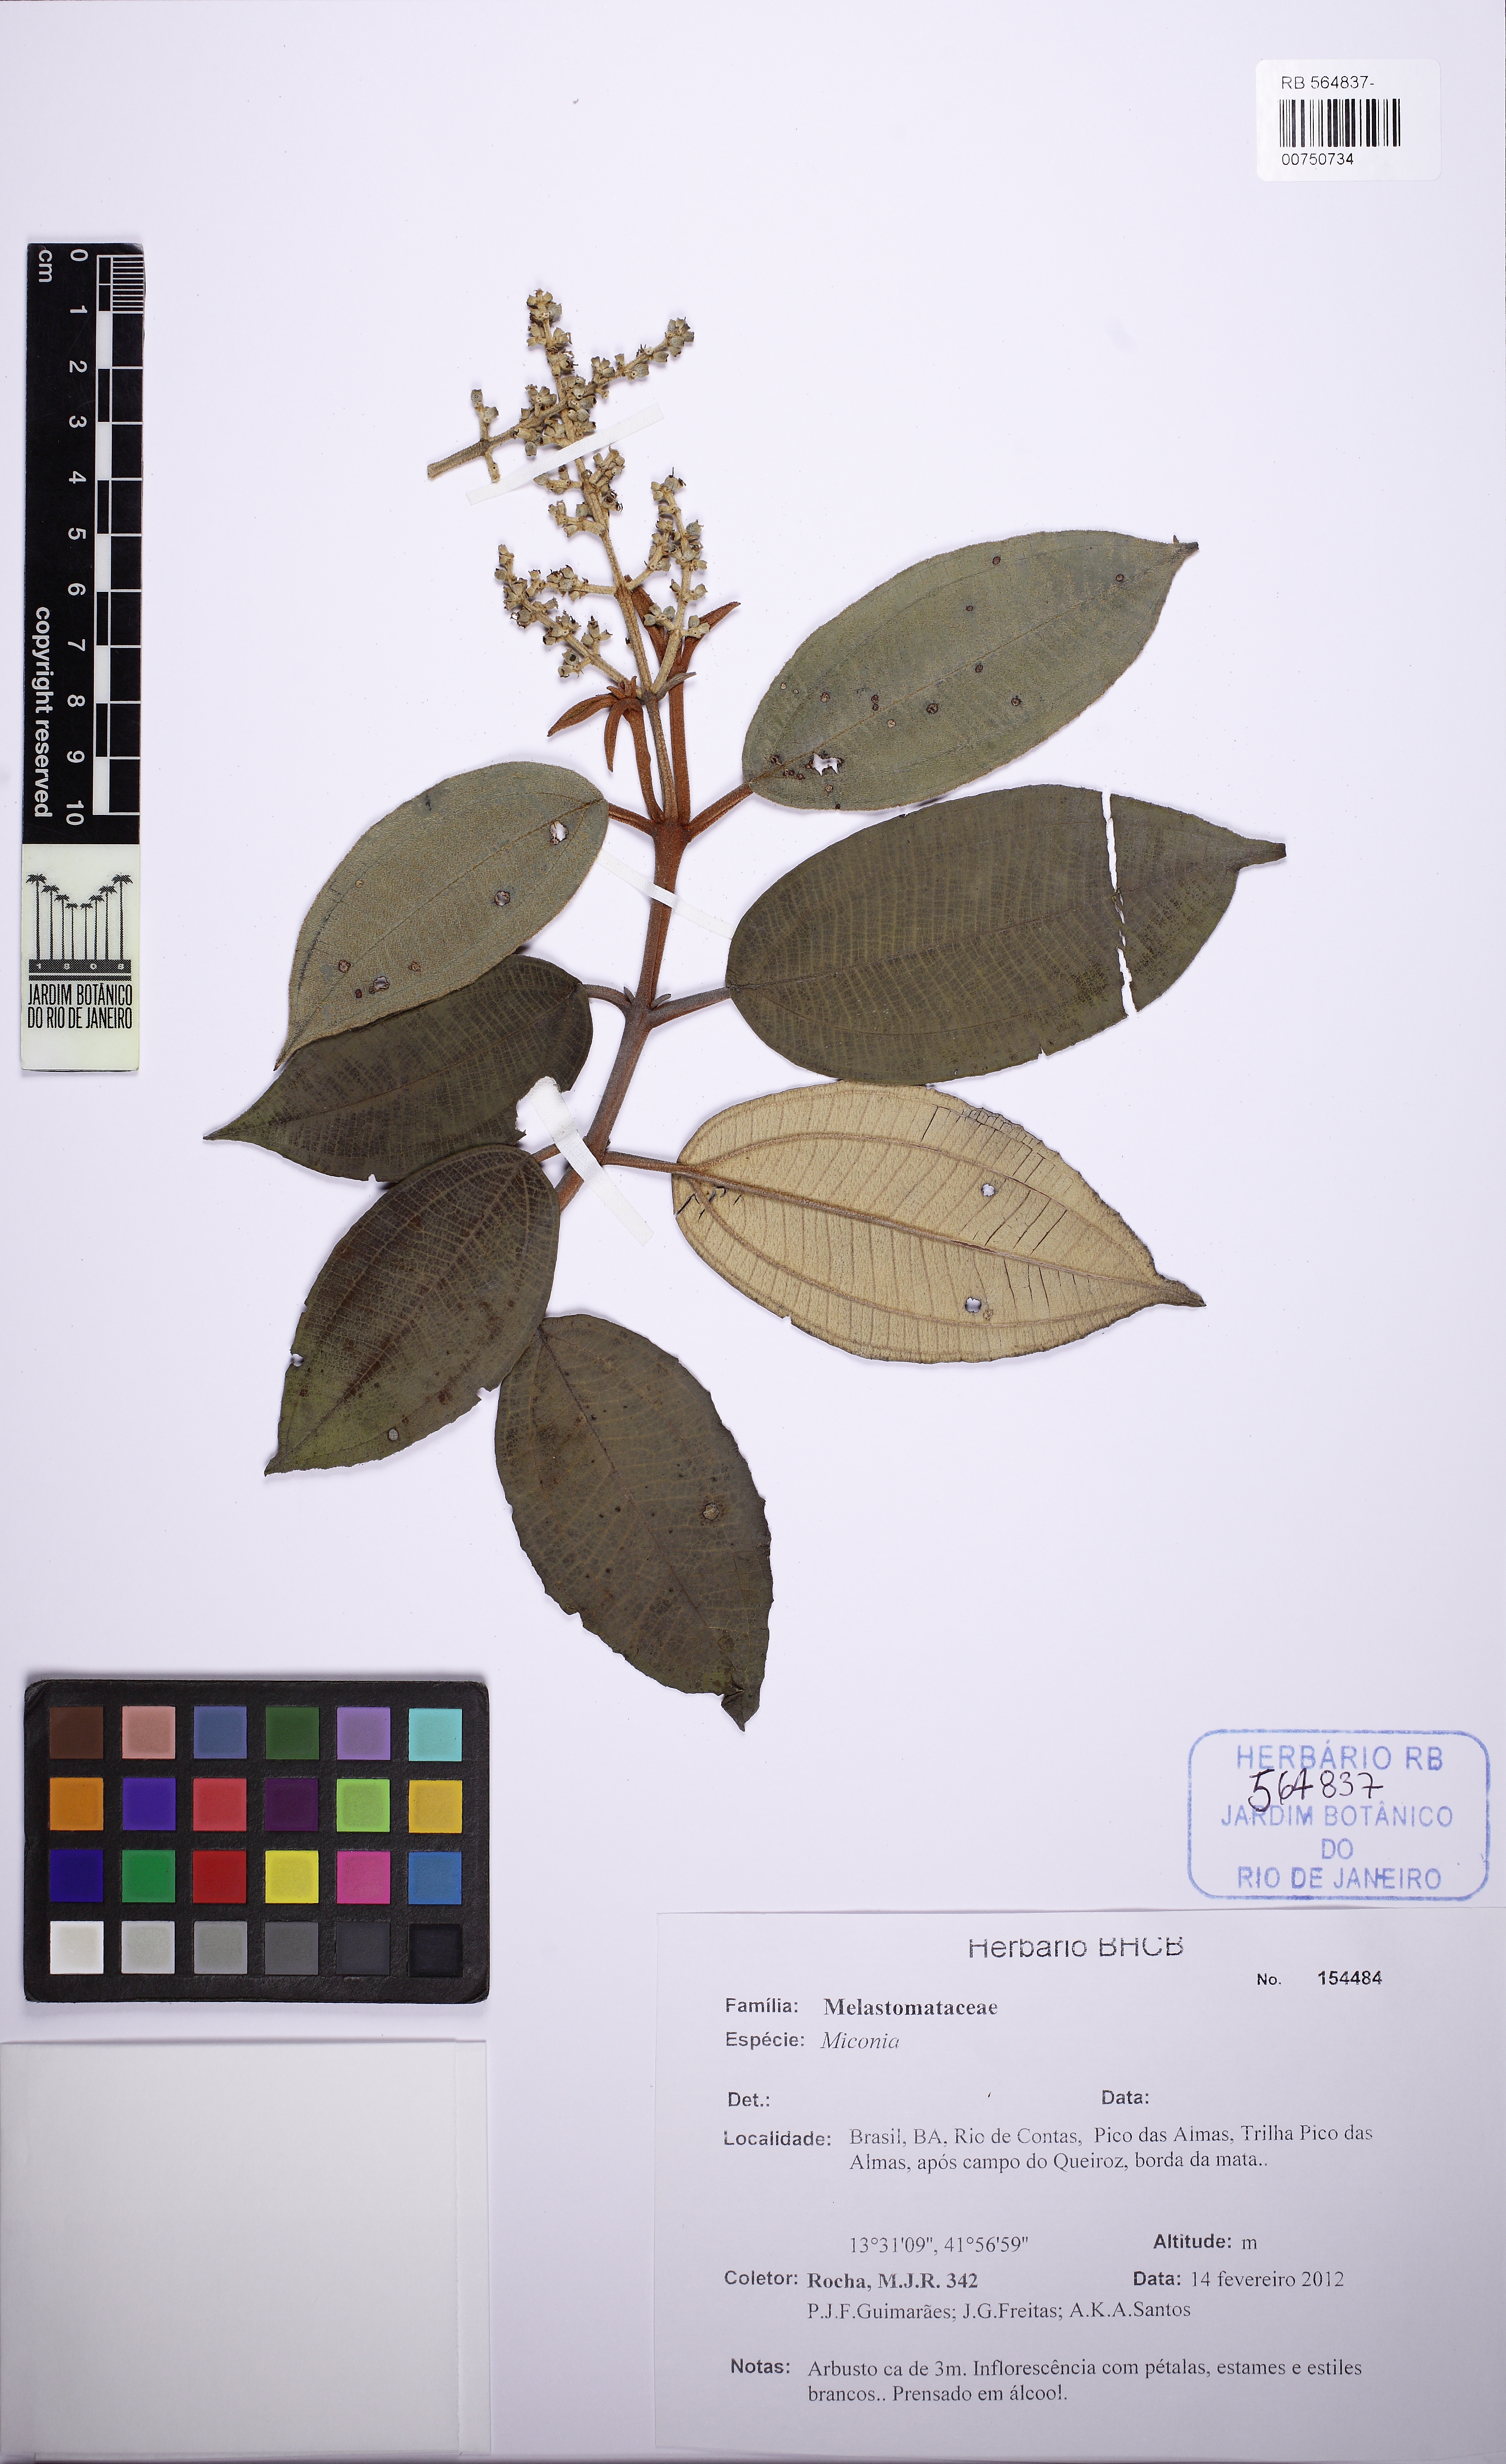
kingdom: Plantae
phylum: Tracheophyta
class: Magnoliopsida
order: Myrtales
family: Melastomataceae
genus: Miconia
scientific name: Miconia
